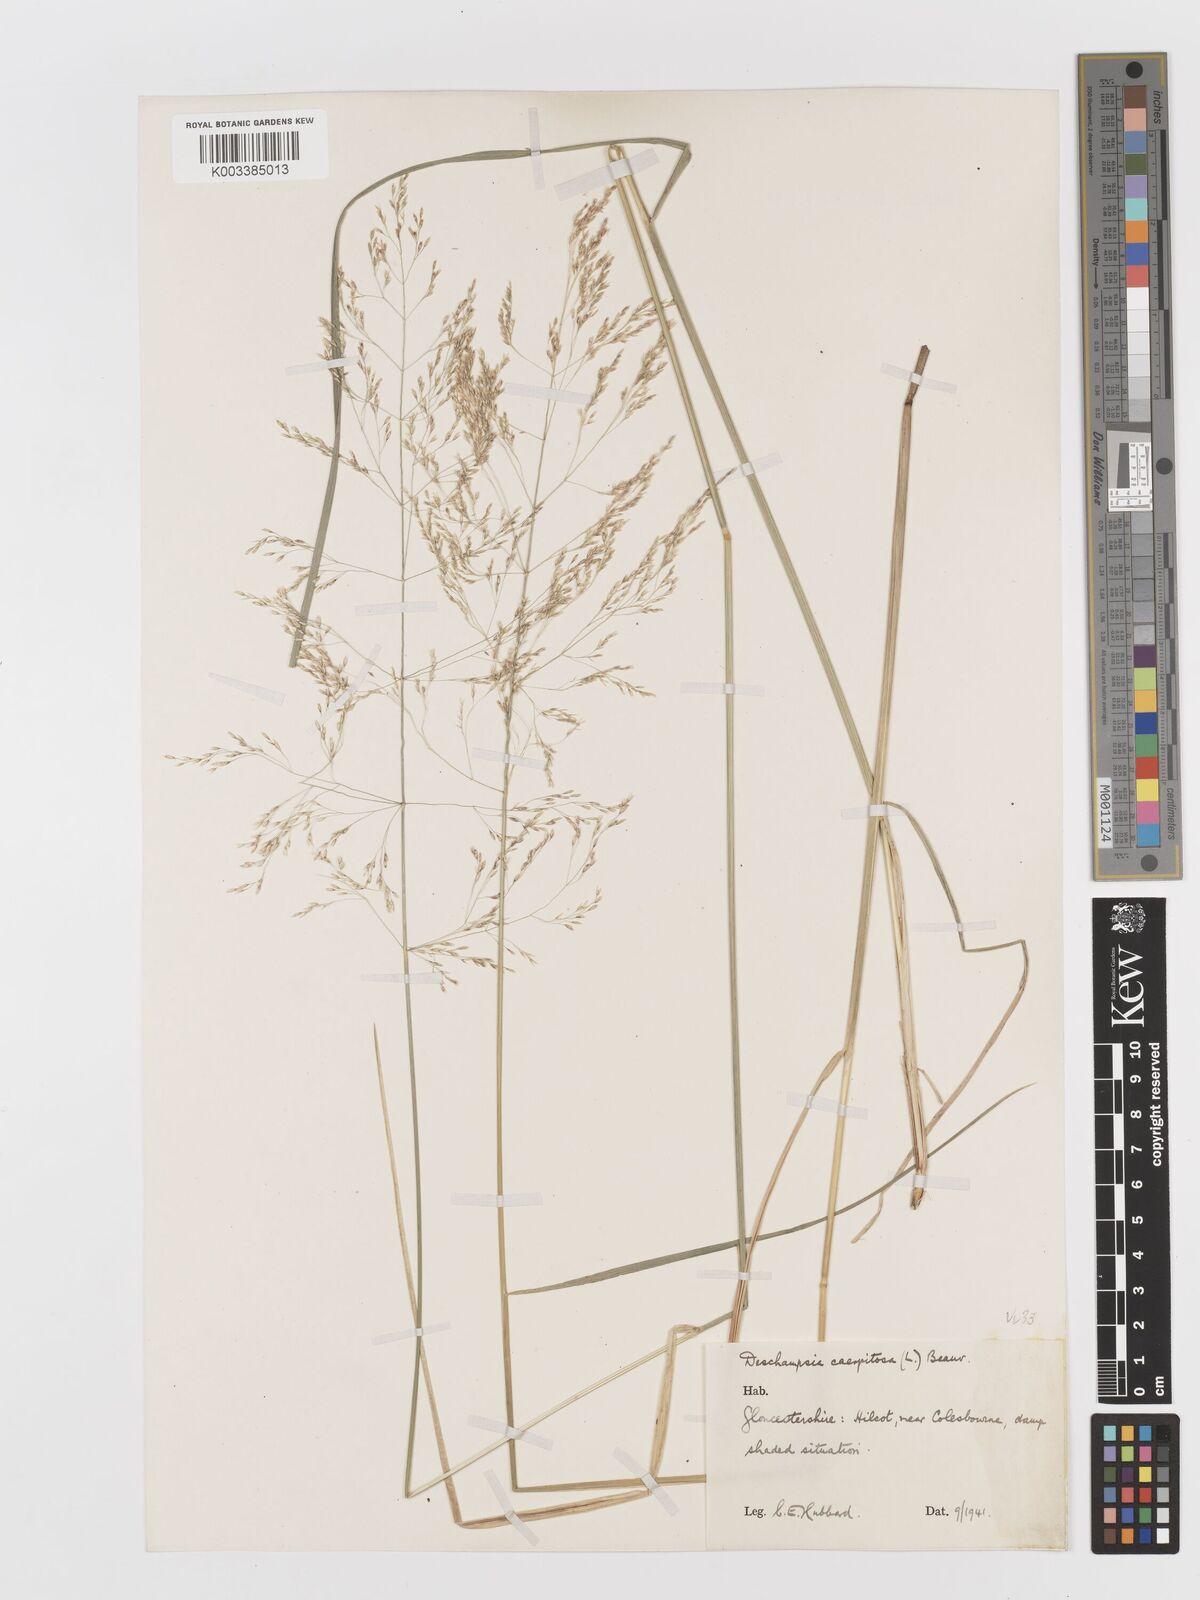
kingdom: Plantae
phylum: Tracheophyta
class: Liliopsida
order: Poales
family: Poaceae
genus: Deschampsia
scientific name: Deschampsia cespitosa
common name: Tufted hair-grass
